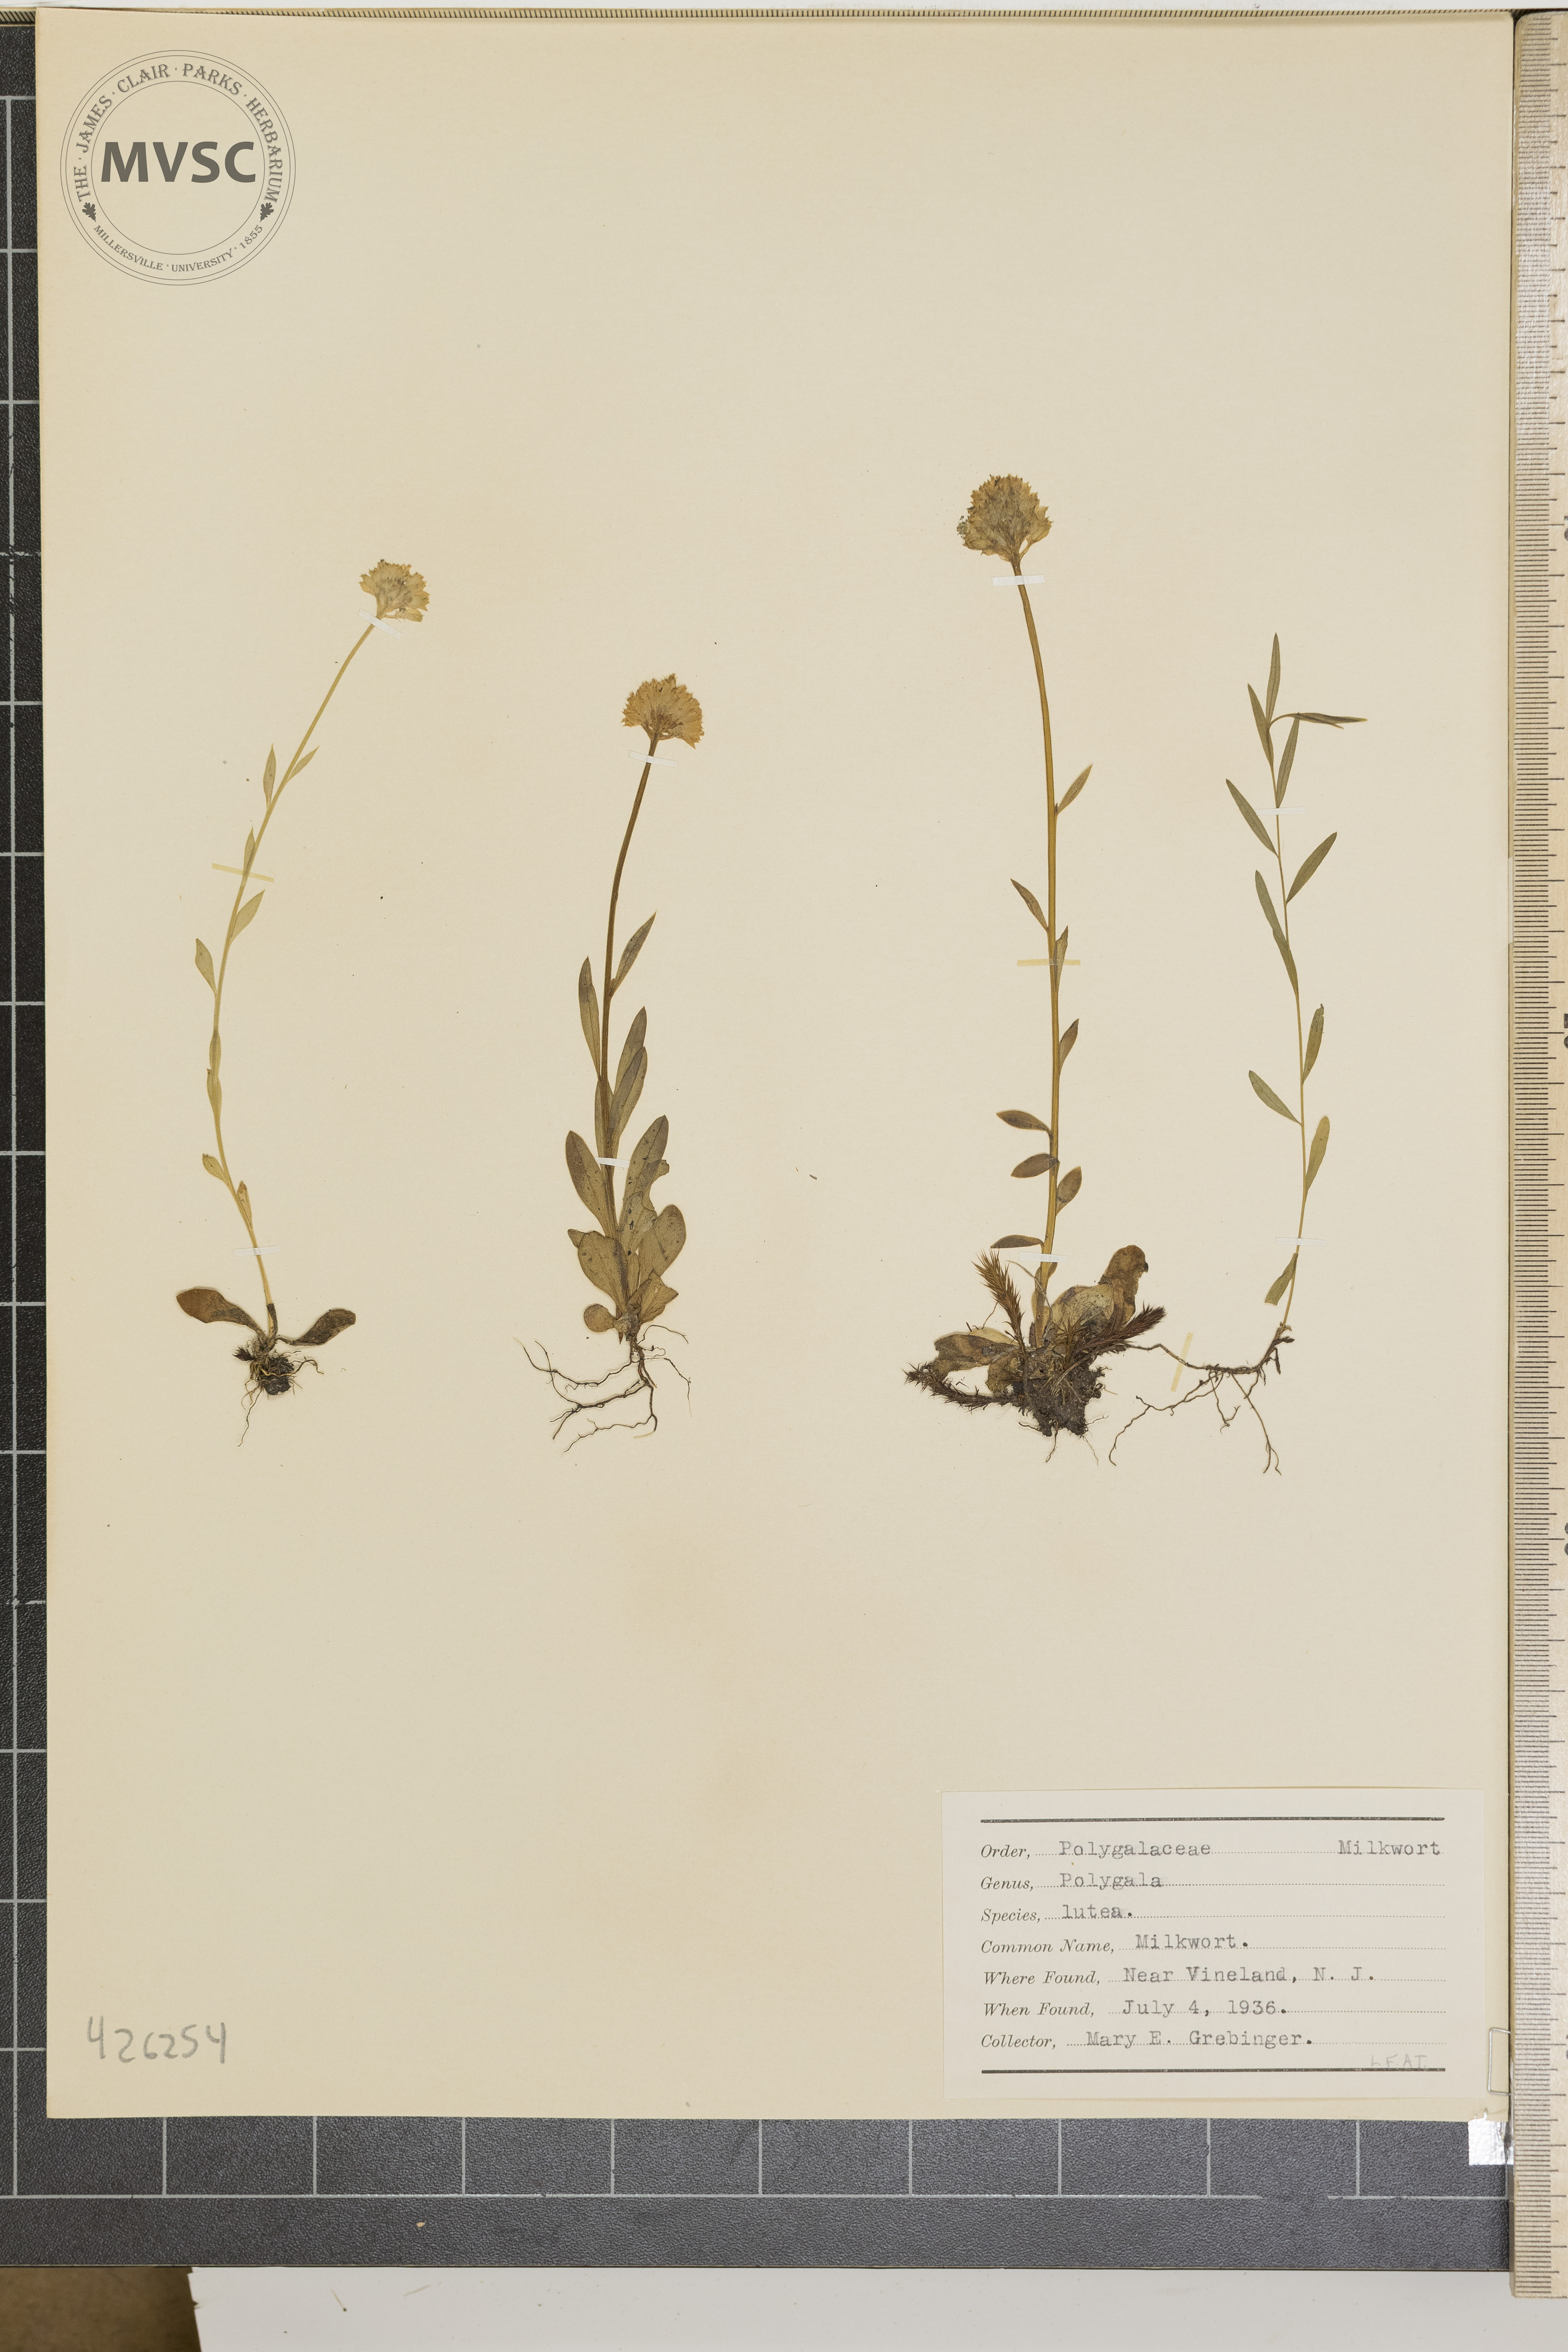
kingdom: Plantae
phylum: Tracheophyta
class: Magnoliopsida
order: Fabales
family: Polygalaceae
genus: Polygala
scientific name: Polygala lutea
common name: Milkwort
